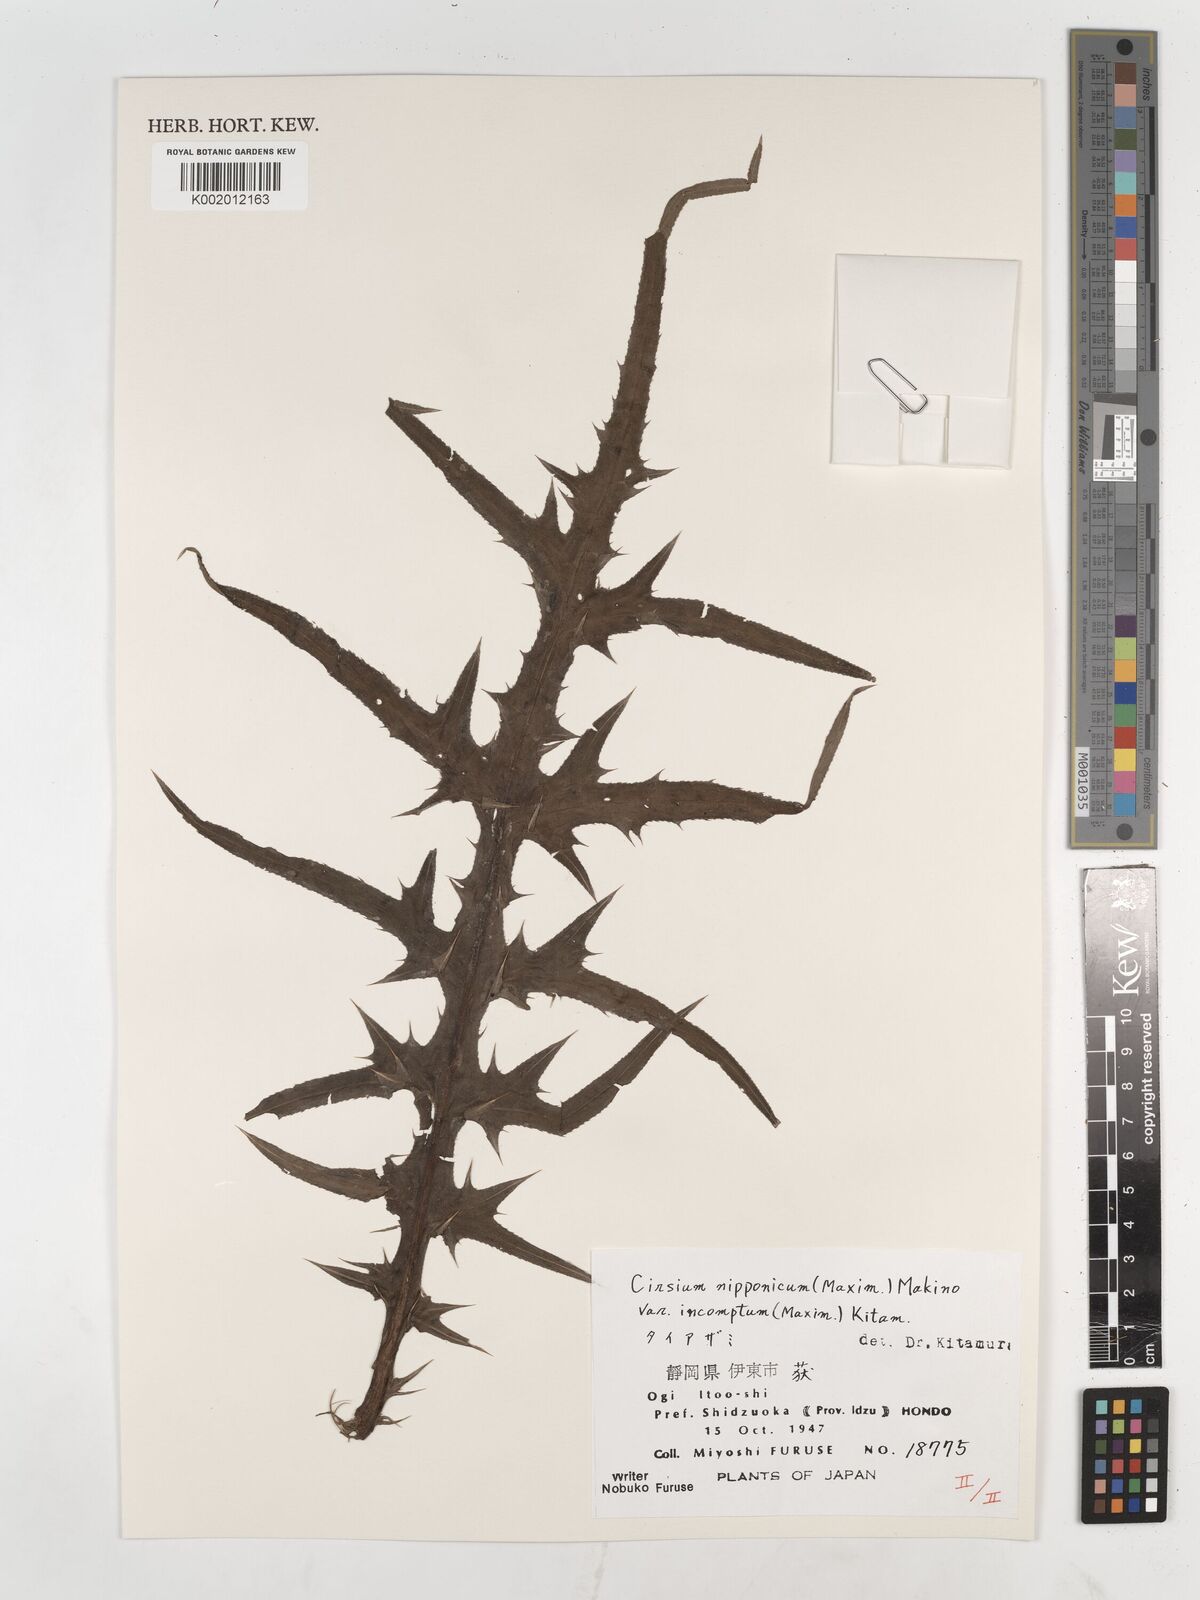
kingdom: Plantae
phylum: Tracheophyta
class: Magnoliopsida
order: Asterales
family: Asteraceae
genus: Cirsium
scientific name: Cirsium nipponicum
